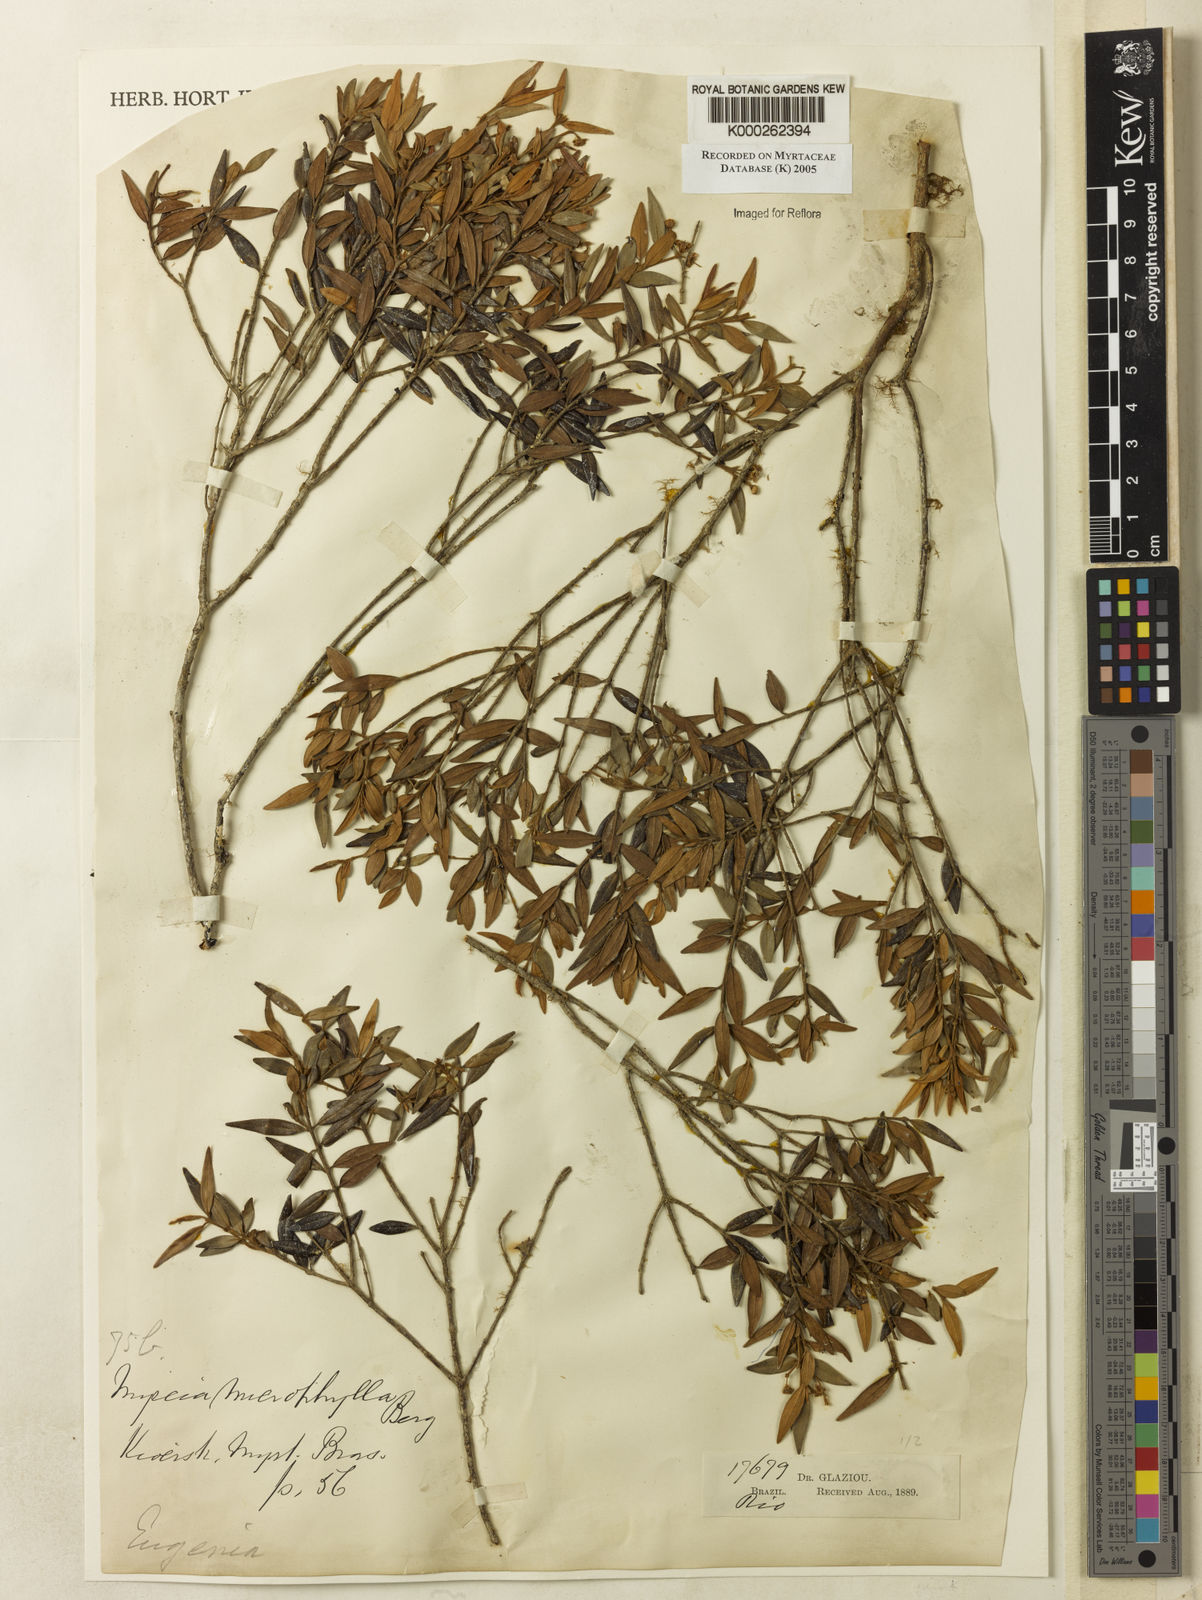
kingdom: Plantae
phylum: Tracheophyta
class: Magnoliopsida
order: Myrtales
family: Myrtaceae
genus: Myrcia
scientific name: Myrcia microphylla
